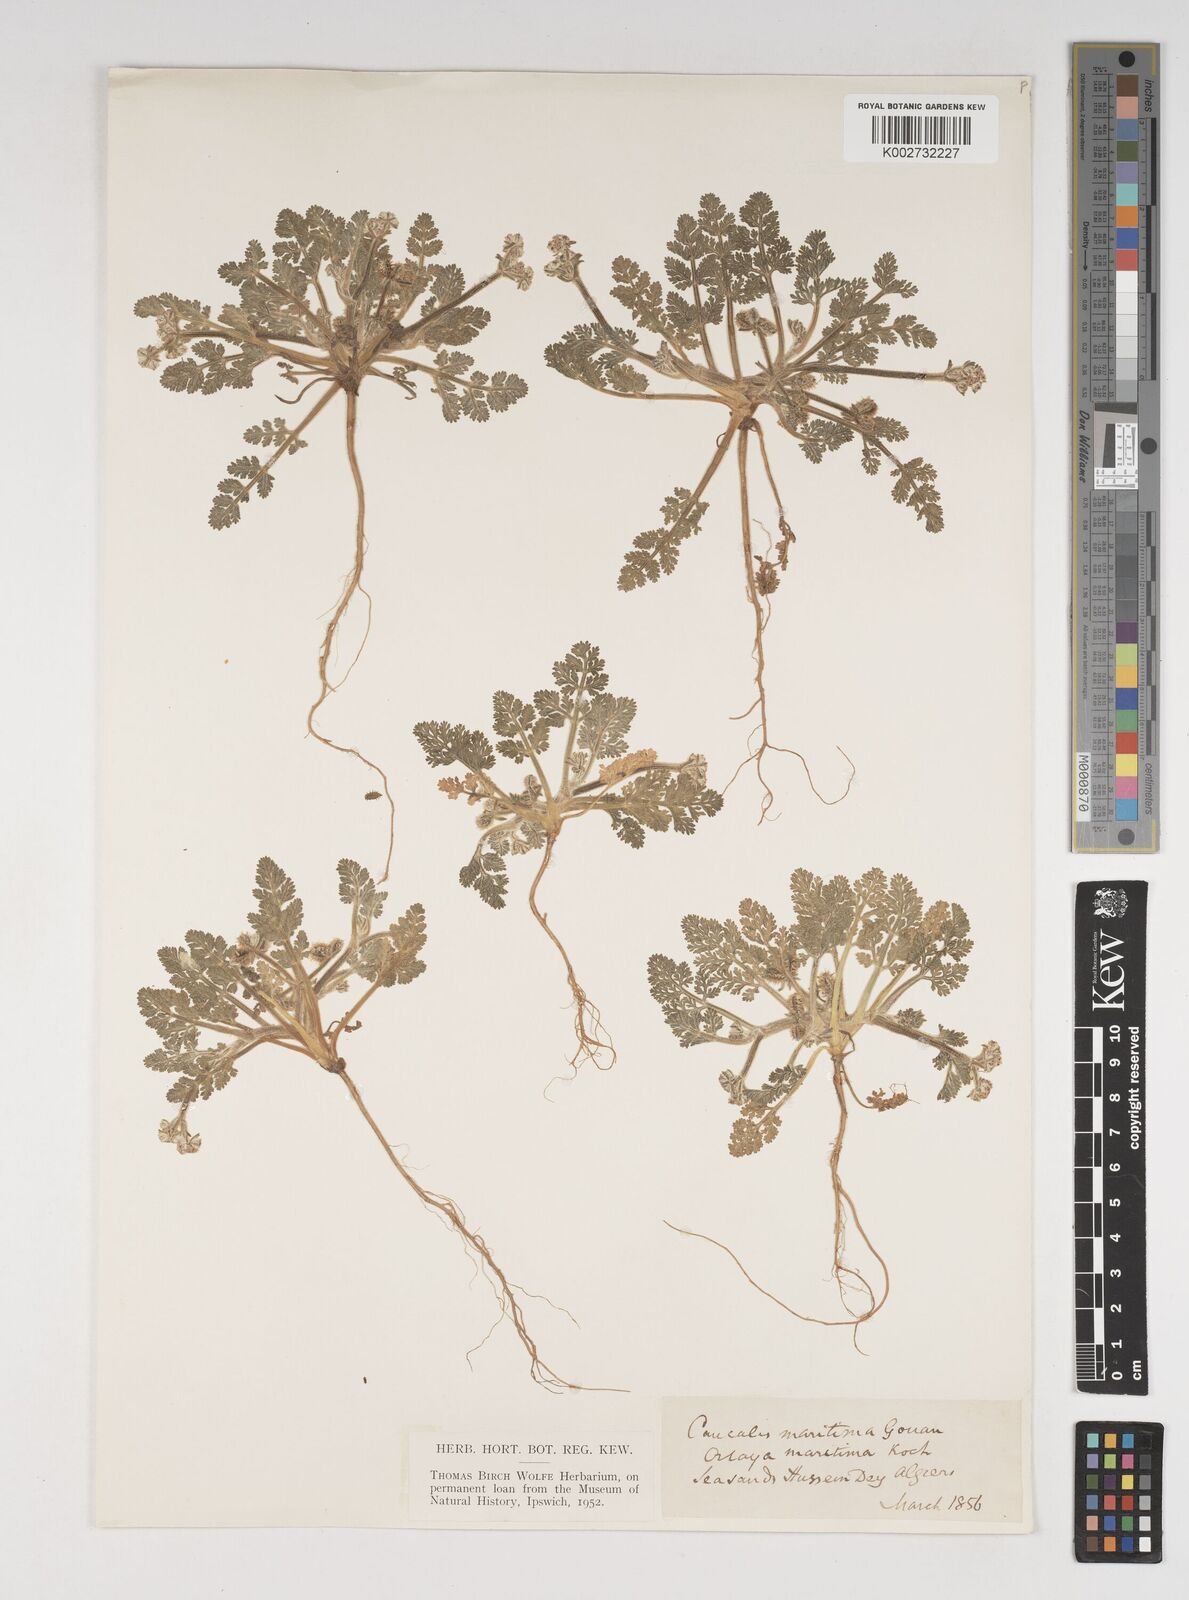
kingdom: Plantae
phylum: Tracheophyta
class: Magnoliopsida
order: Apiales
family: Apiaceae
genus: Daucus
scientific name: Daucus pumilus
